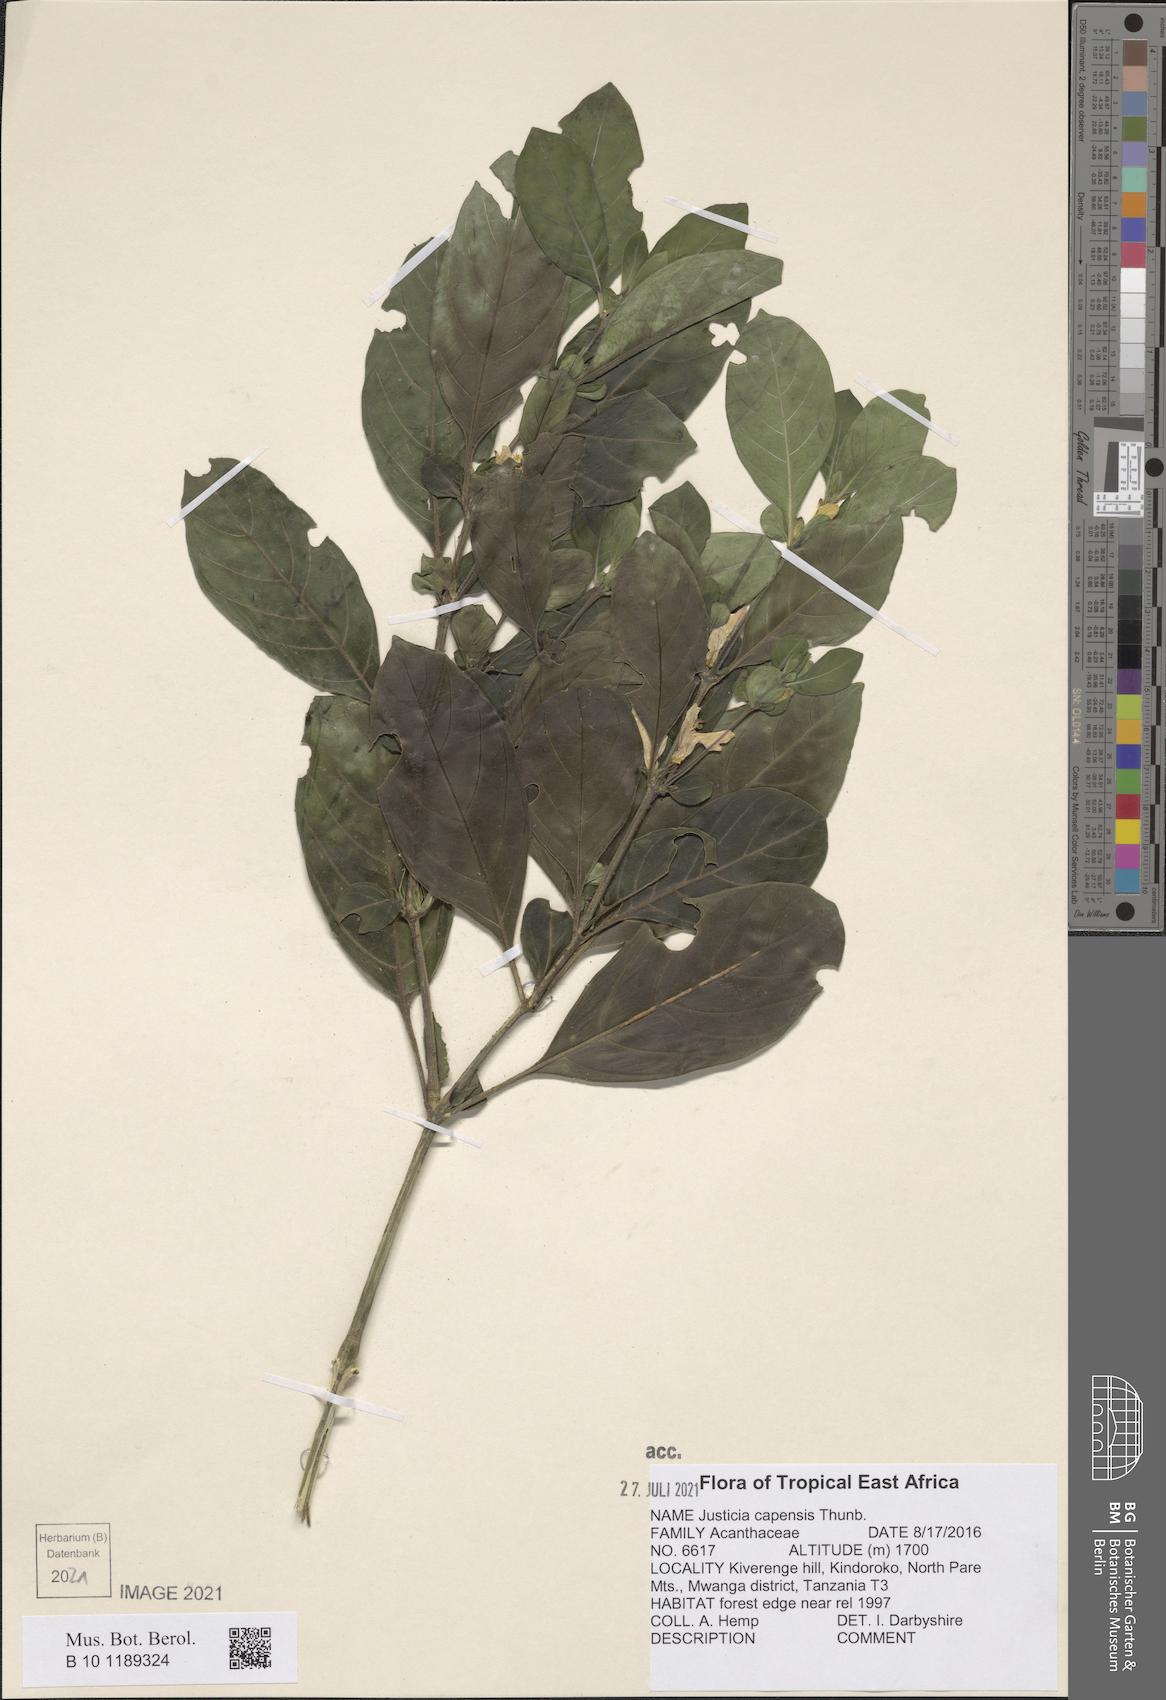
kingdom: Plantae
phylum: Tracheophyta
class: Magnoliopsida
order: Lamiales
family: Acanthaceae
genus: Justicia
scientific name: Justicia capensis
